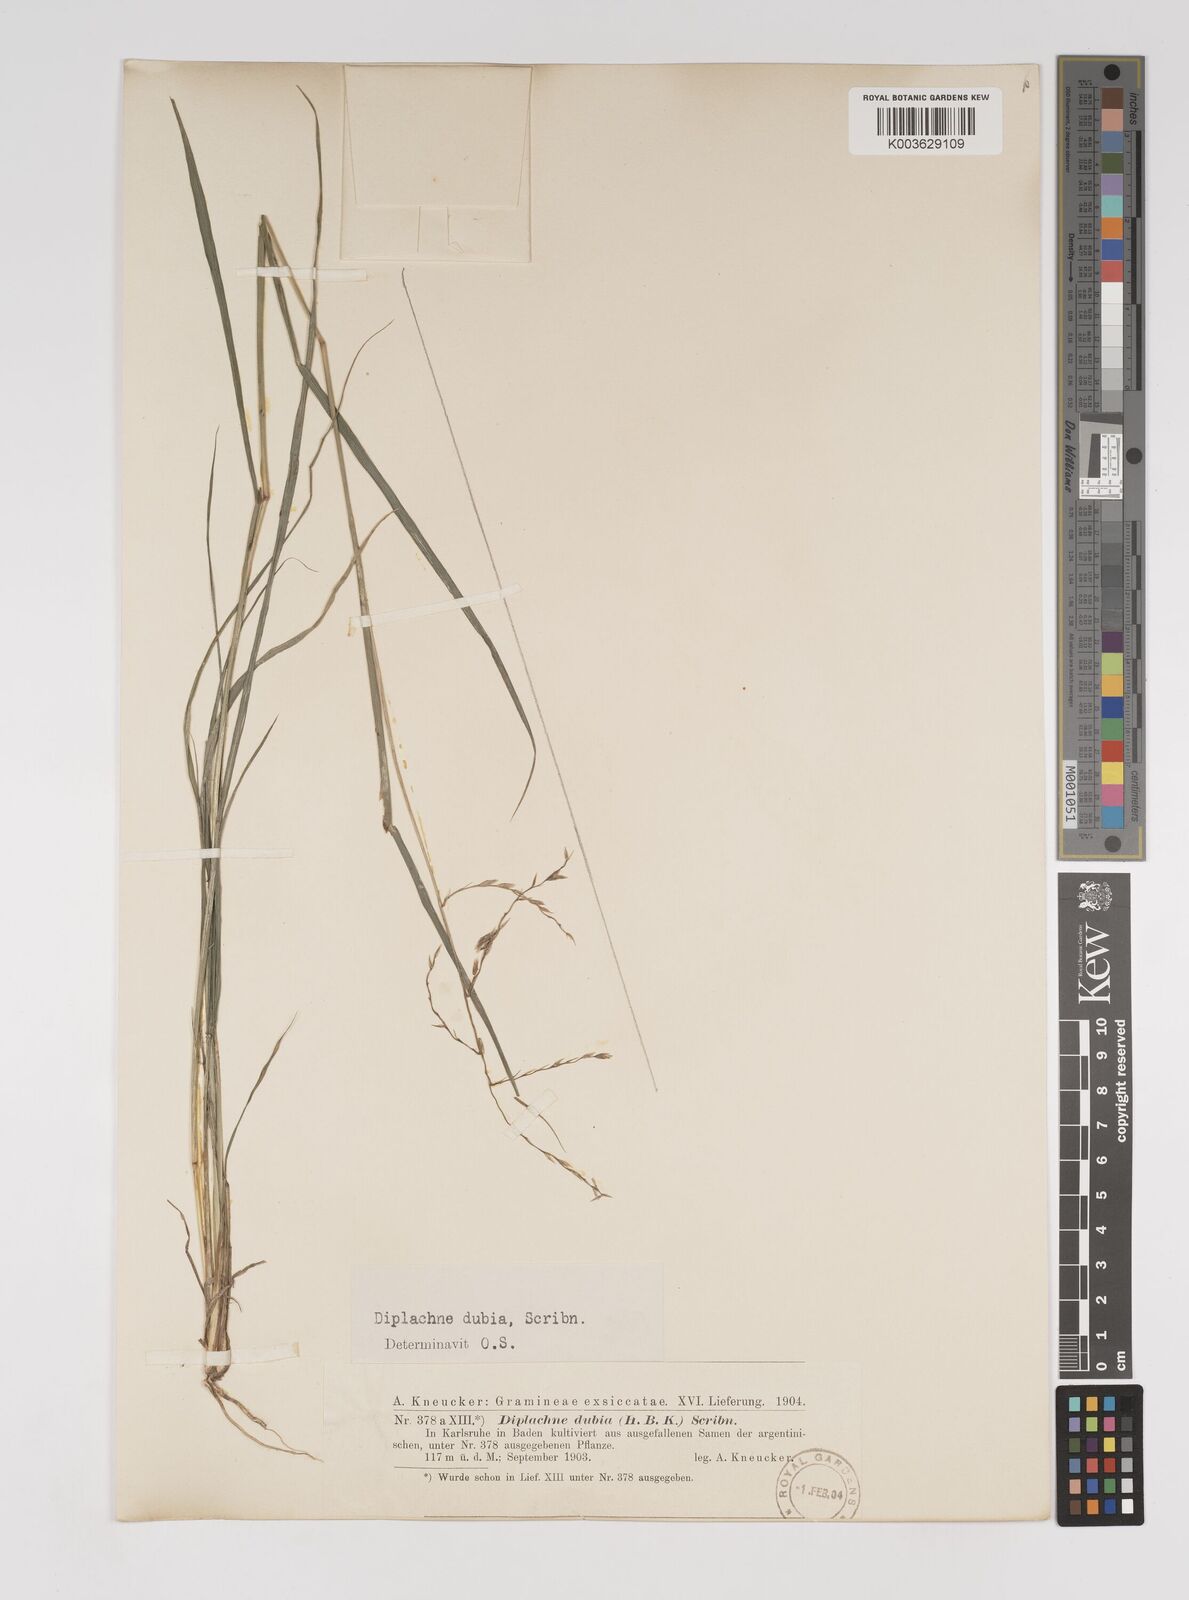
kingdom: Plantae
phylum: Tracheophyta
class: Liliopsida
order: Poales
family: Poaceae
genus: Disakisperma
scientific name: Disakisperma dubium
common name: Green sprangletop
